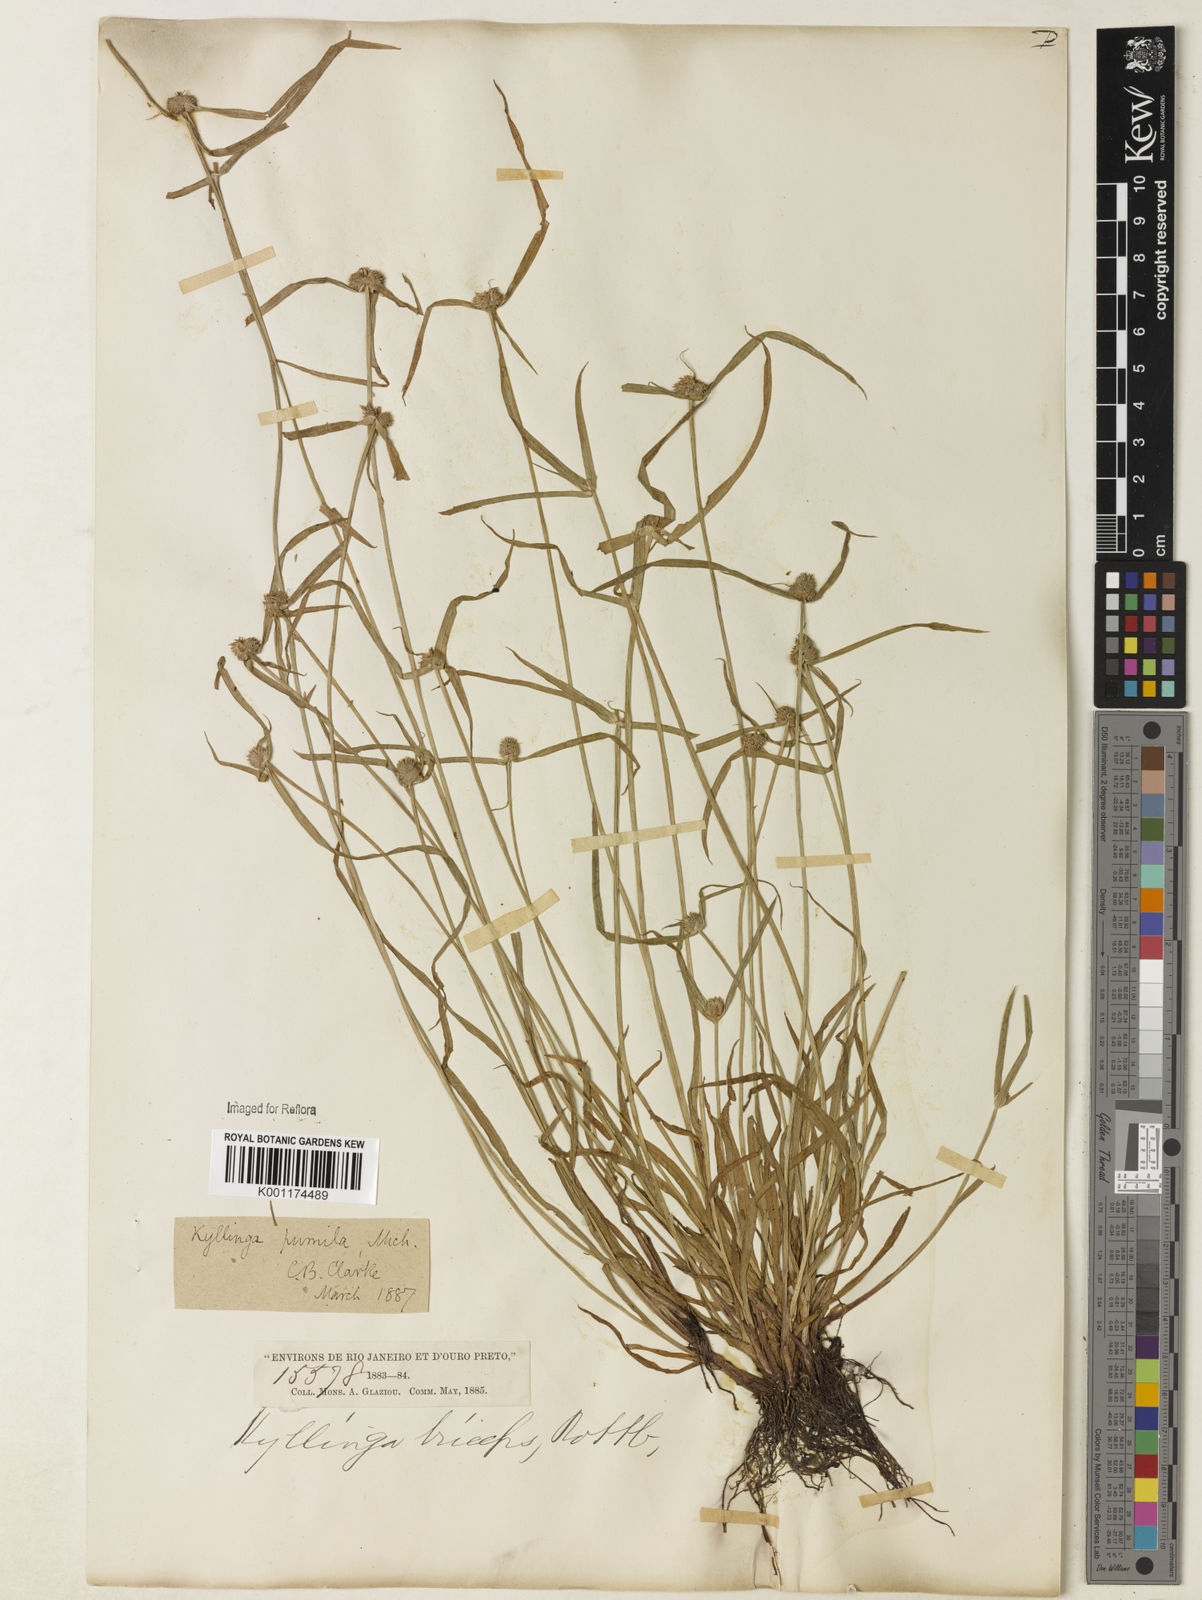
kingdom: Plantae
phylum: Tracheophyta
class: Liliopsida
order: Poales
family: Cyperaceae
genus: Cyperus
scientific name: Cyperus
